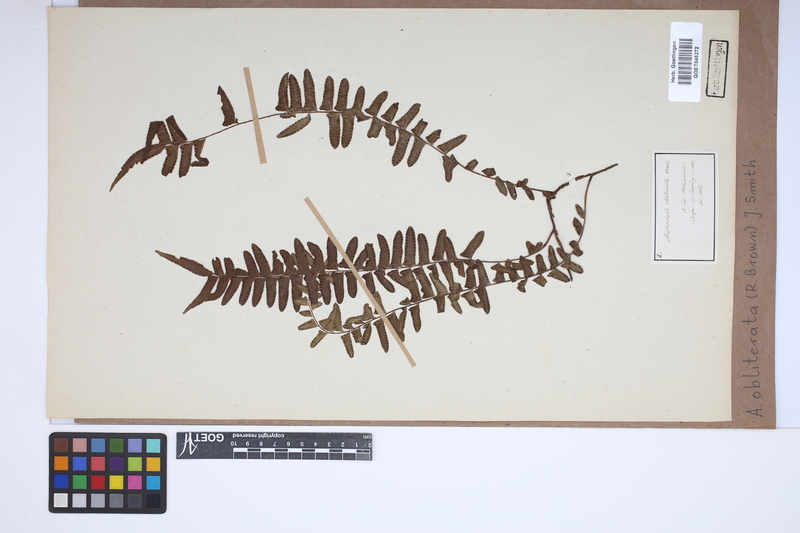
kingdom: Plantae
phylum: Tracheophyta
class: Polypodiopsida
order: Polypodiales
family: Nephrolepidaceae
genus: Nephrolepis
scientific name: Nephrolepis obliterata
